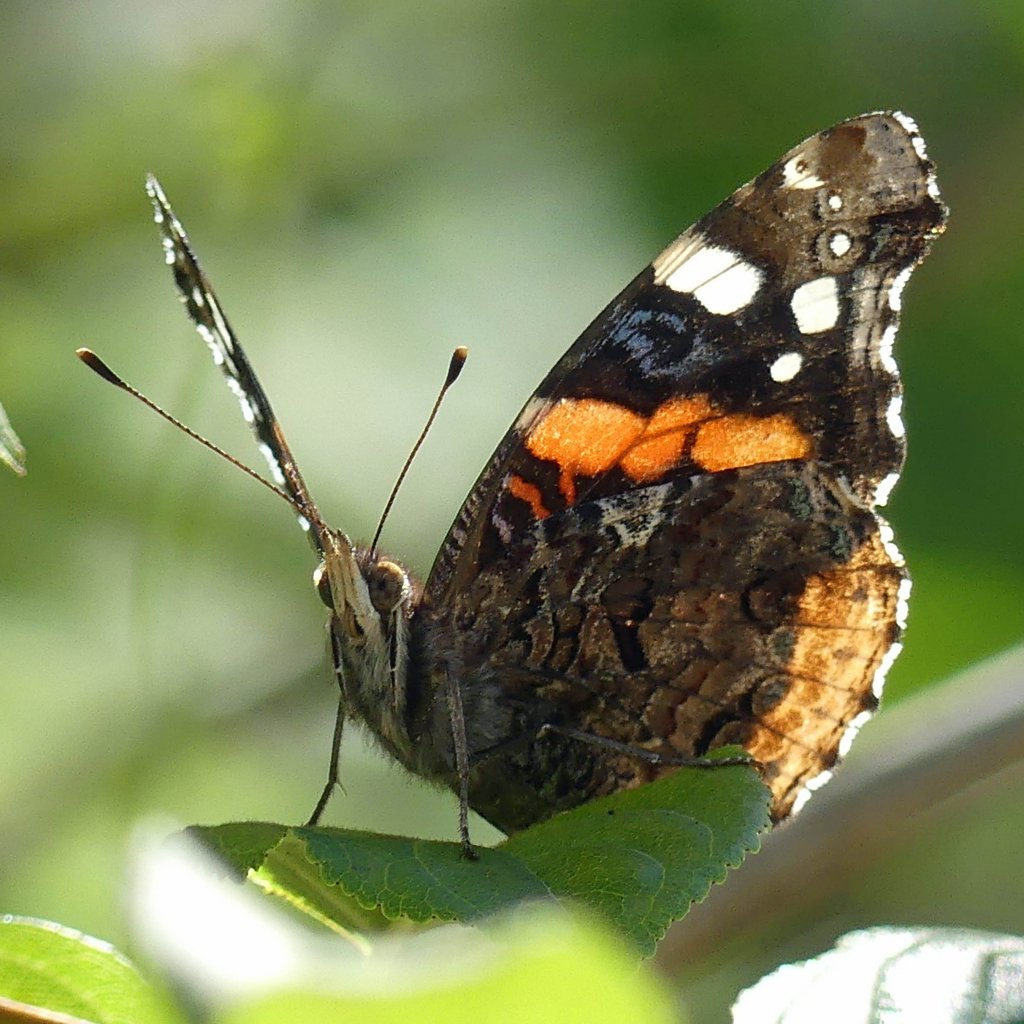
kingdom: Animalia
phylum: Arthropoda
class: Insecta
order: Lepidoptera
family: Nymphalidae
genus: Vanessa
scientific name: Vanessa atalanta
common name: Red Admiral
